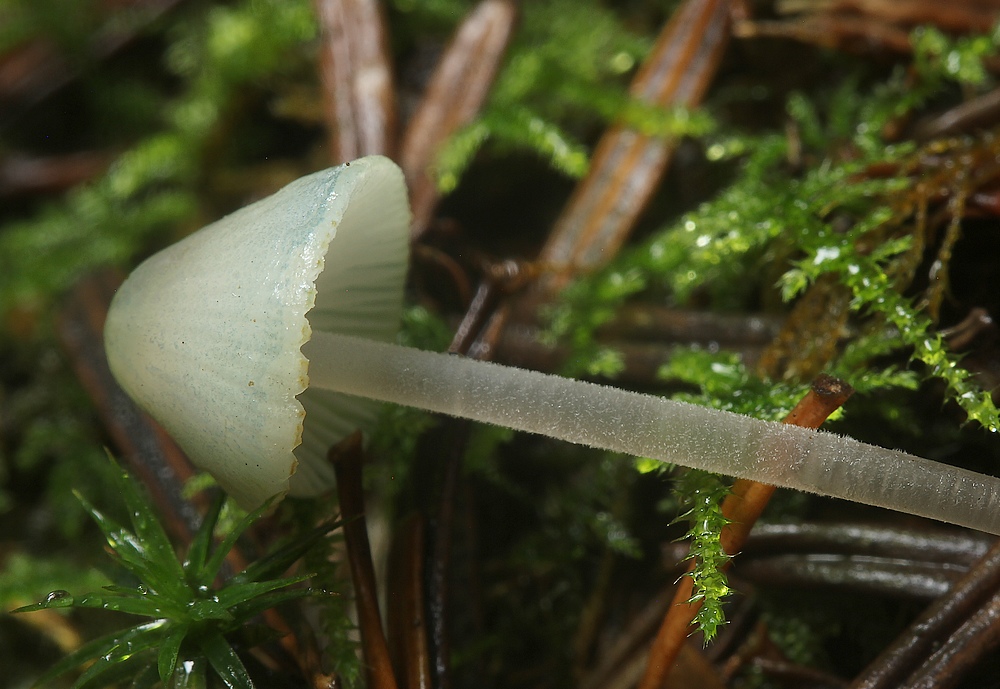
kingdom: Fungi
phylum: Basidiomycota
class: Agaricomycetes
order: Agaricales
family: Mycenaceae
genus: Mycena
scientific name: Mycena amicta
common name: iris-huesvamp
